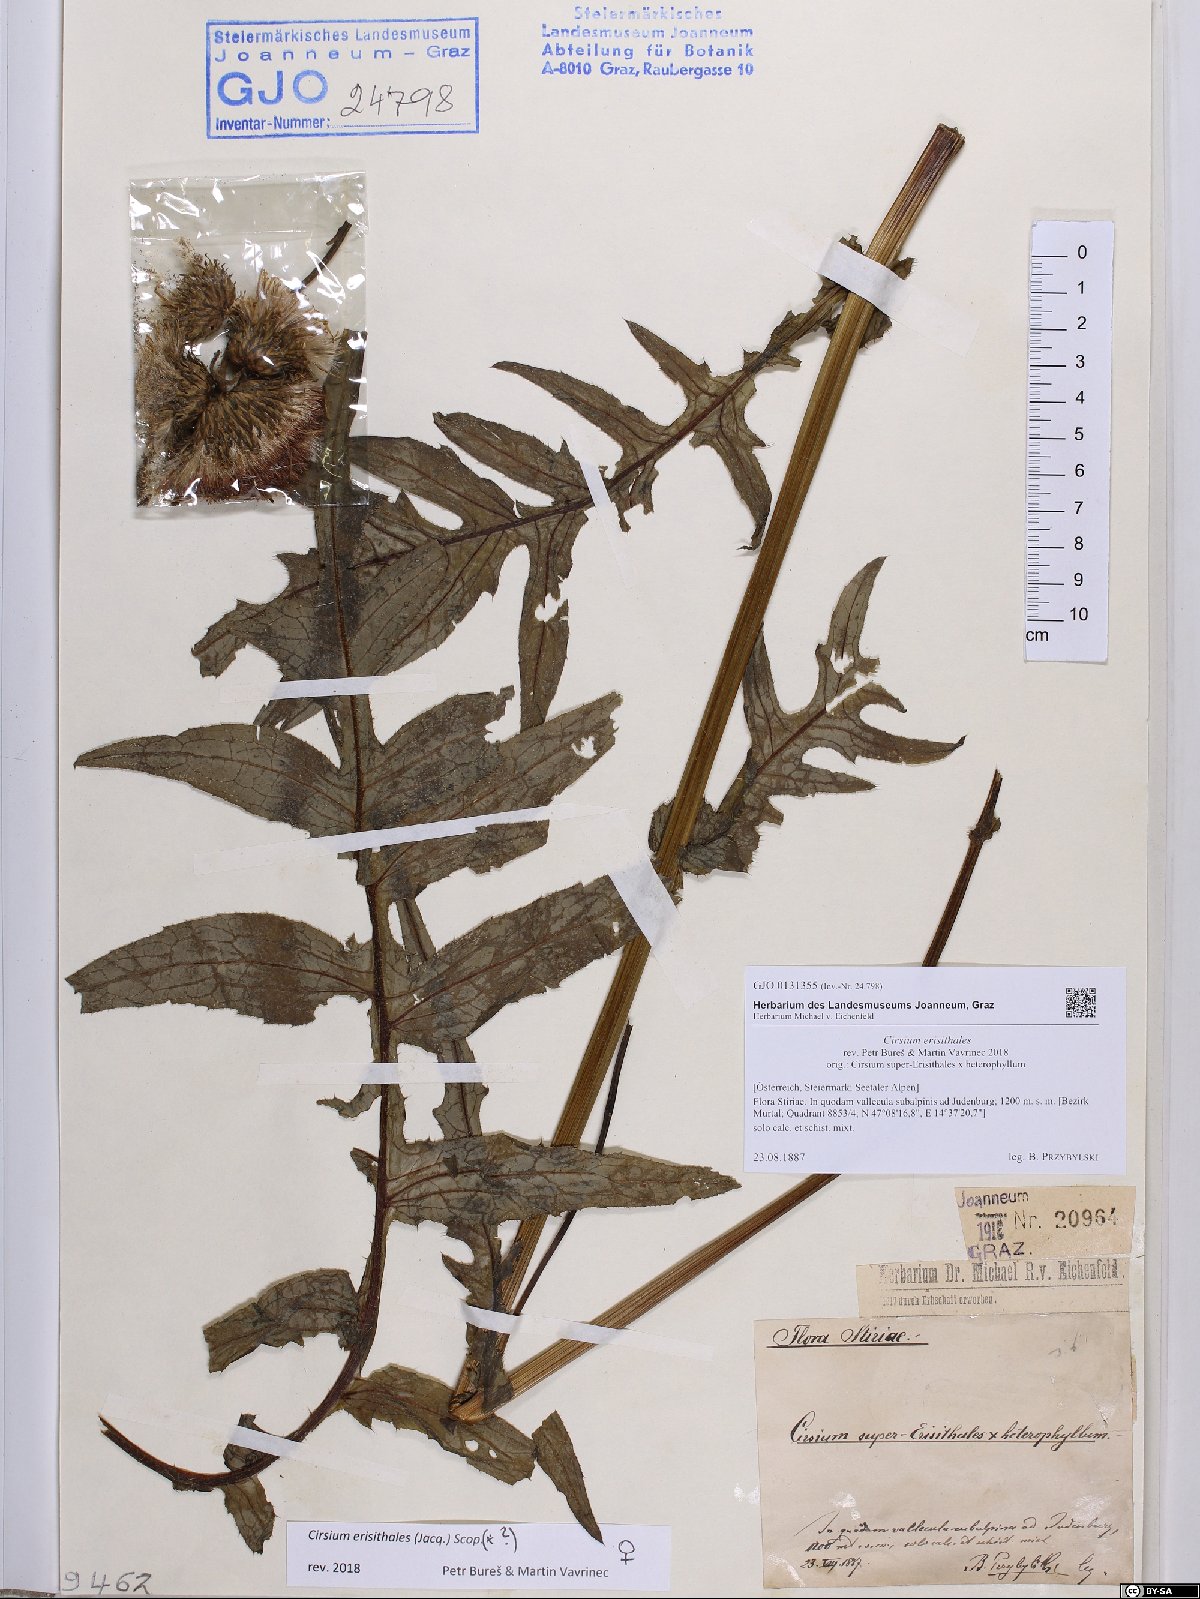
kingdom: Plantae
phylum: Tracheophyta
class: Magnoliopsida
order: Asterales
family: Asteraceae
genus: Cirsium
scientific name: Cirsium erisithales
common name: Yellow thistle
